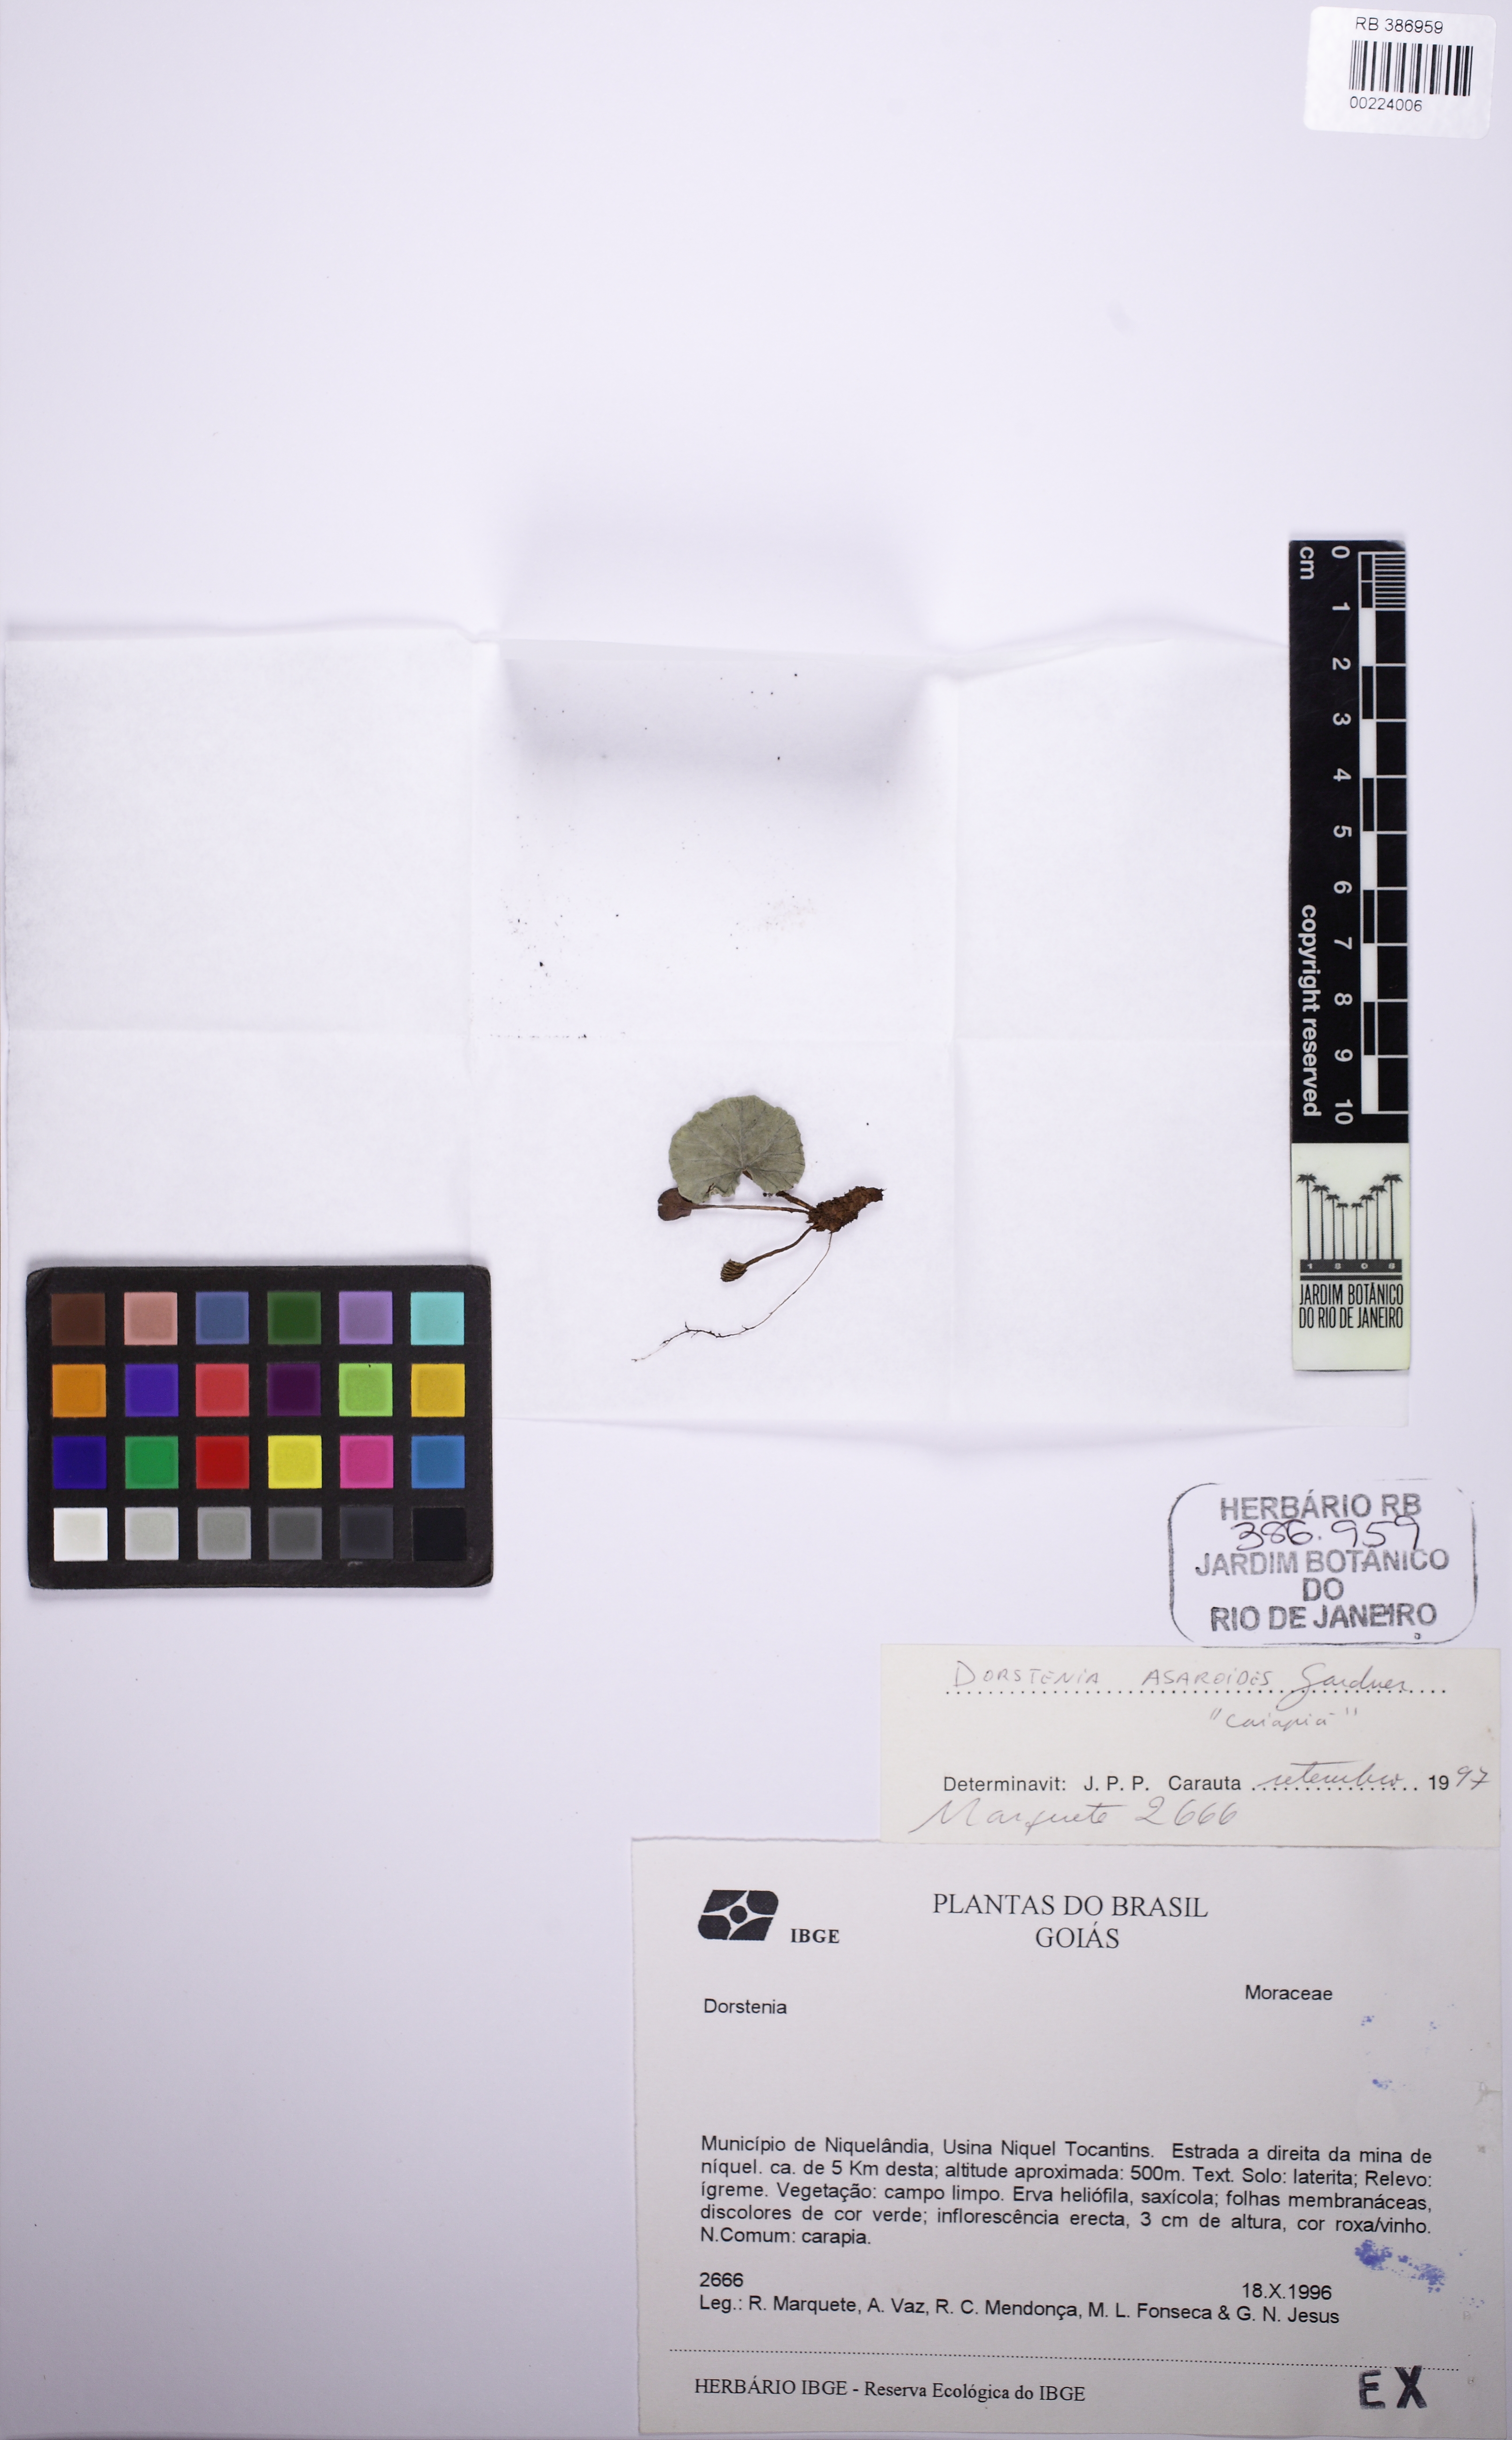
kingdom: Plantae
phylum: Tracheophyta
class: Magnoliopsida
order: Rosales
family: Moraceae
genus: Dorstenia
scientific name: Dorstenia cayapia
